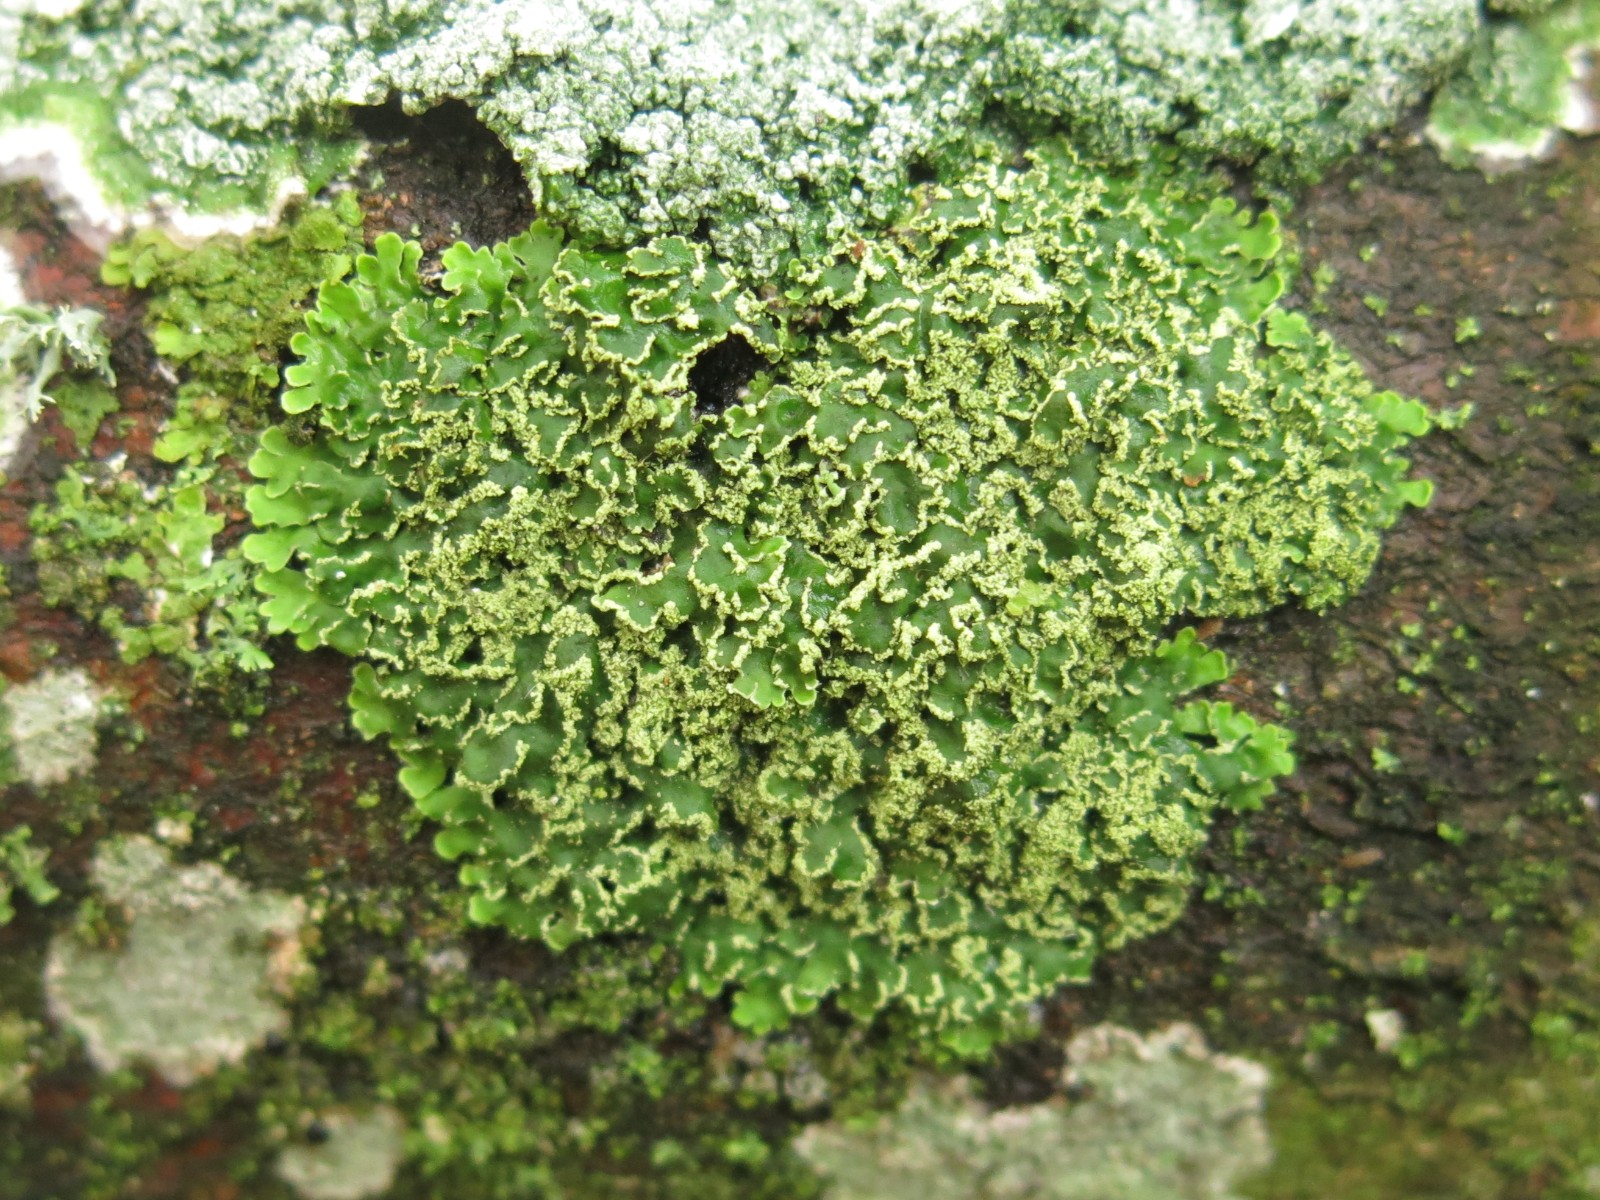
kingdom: Fungi
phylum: Ascomycota
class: Lecanoromycetes
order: Caliciales
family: Physciaceae
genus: Physconia
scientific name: Physconia perisidiosa
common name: liden dugrosetlav
